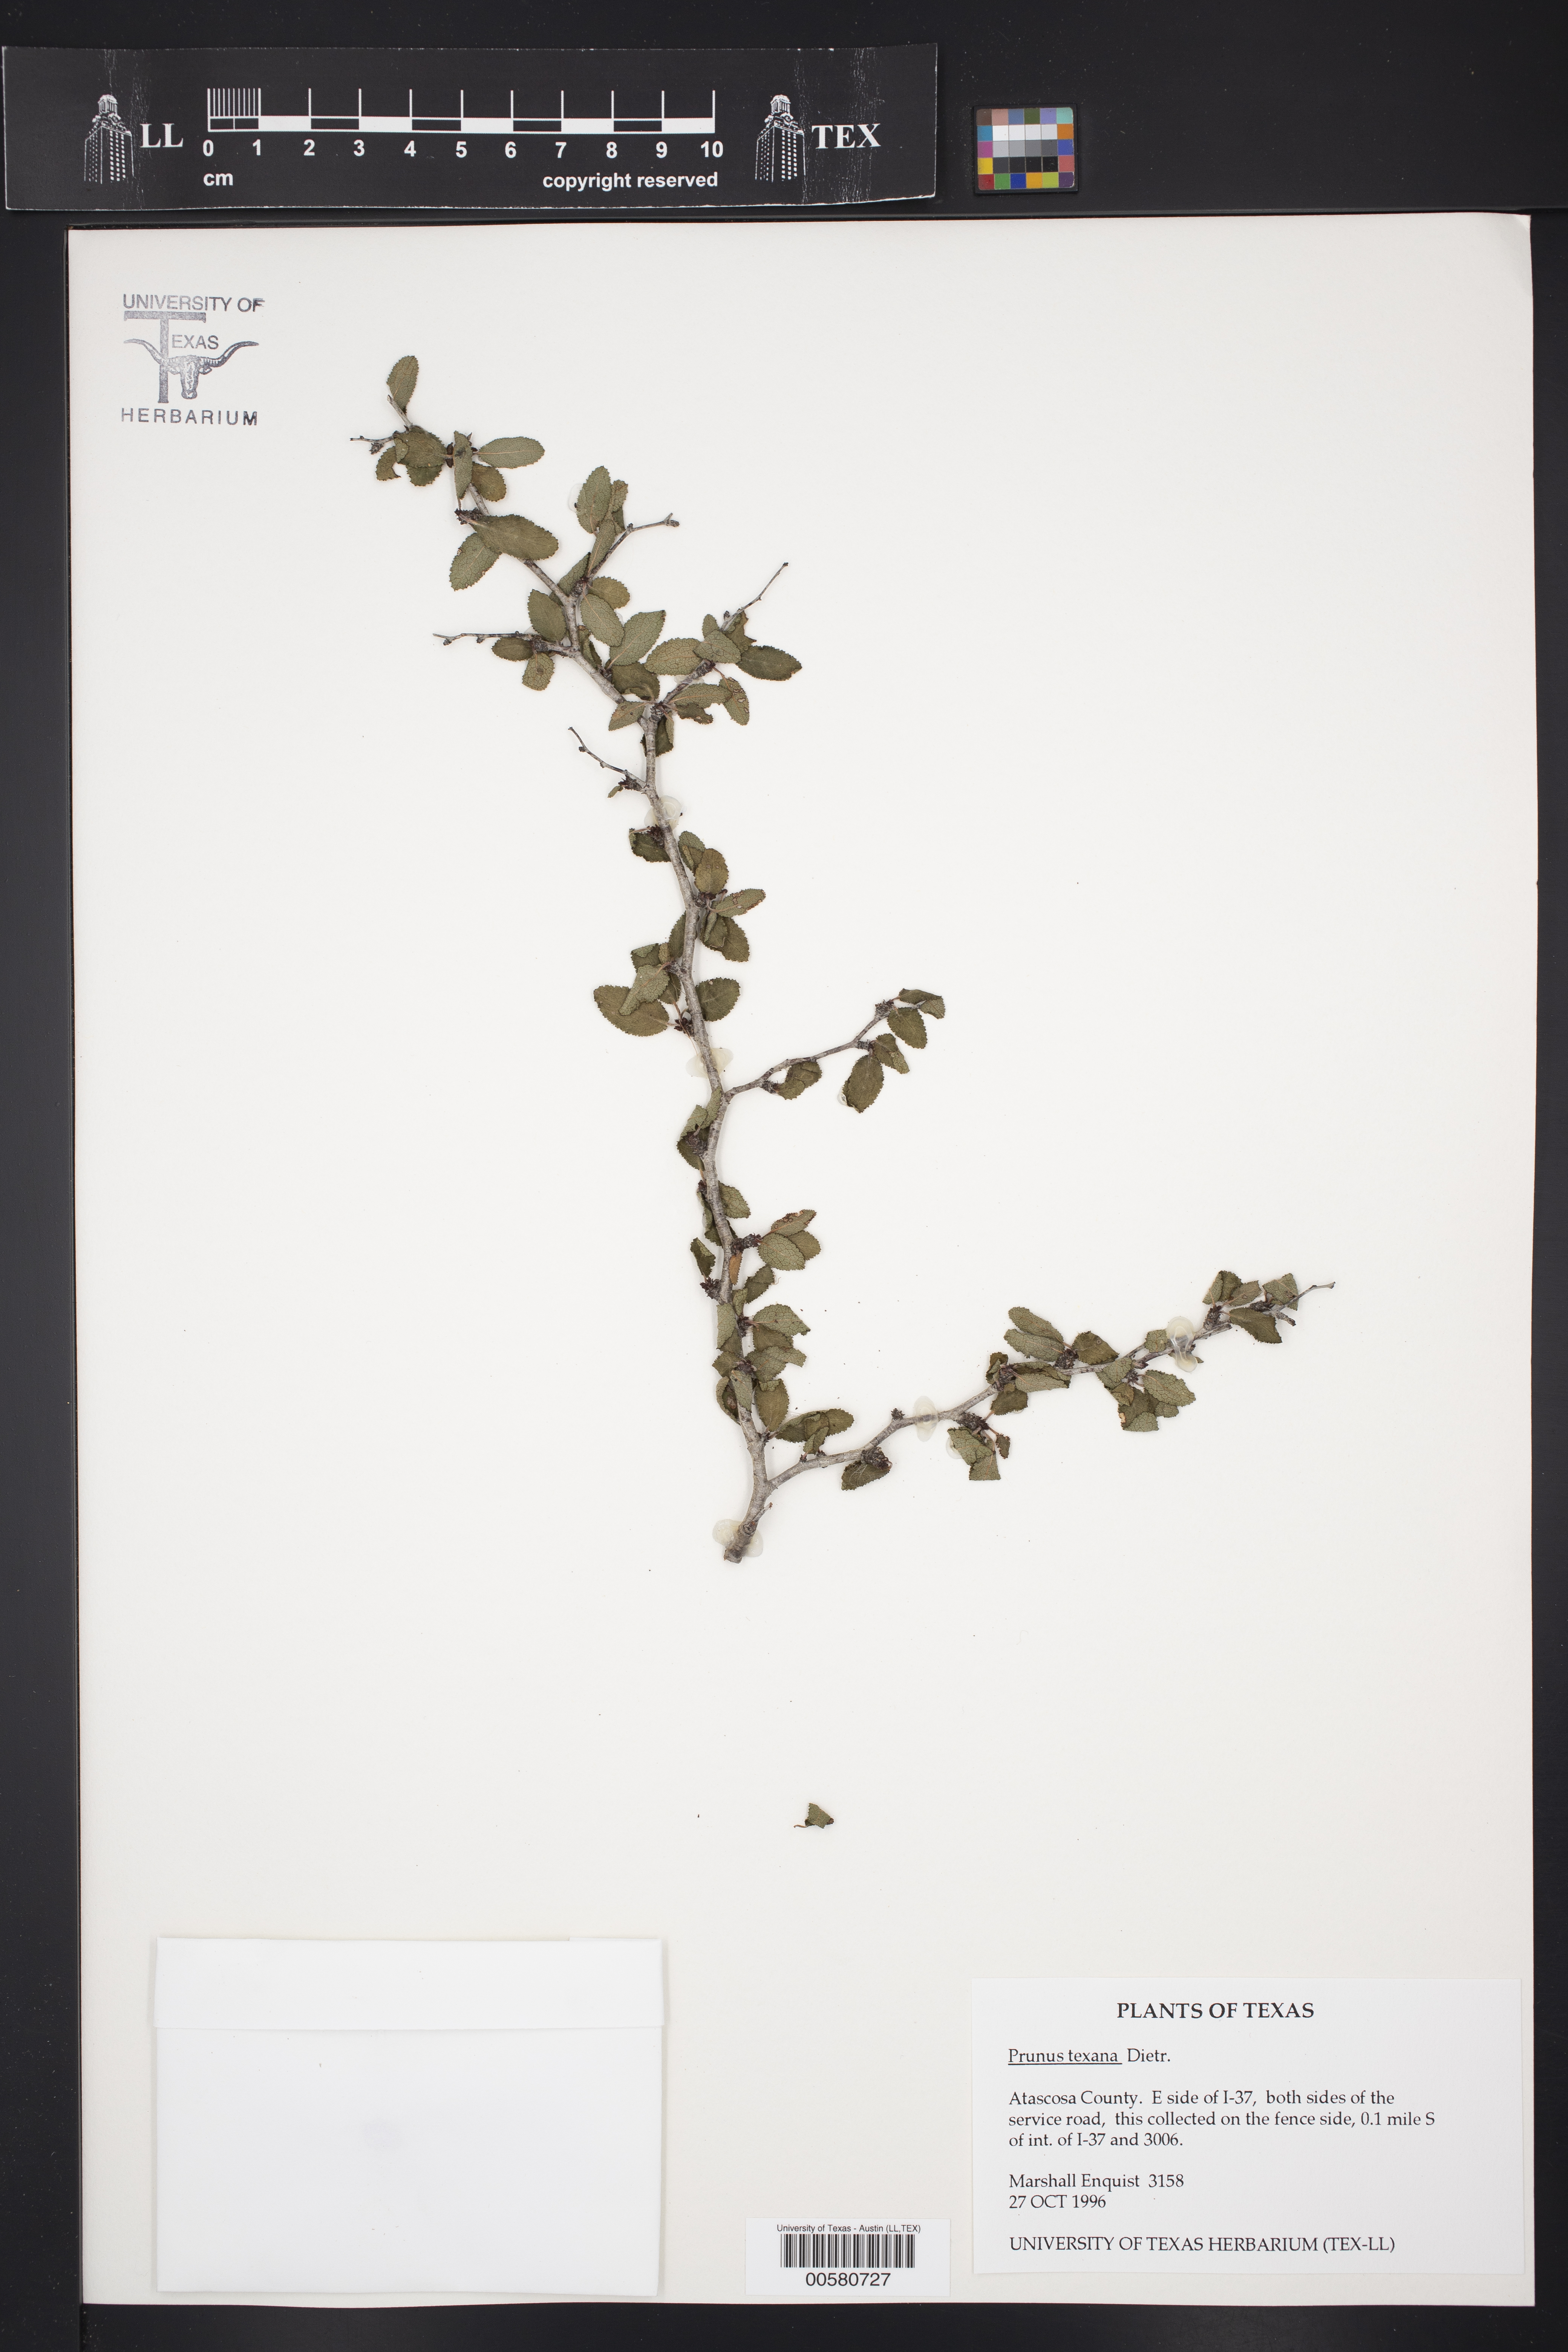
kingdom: Plantae
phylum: Tracheophyta
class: Magnoliopsida
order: Rosales
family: Rosaceae
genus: Prunus
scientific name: Prunus texana
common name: Texas almond cherry
